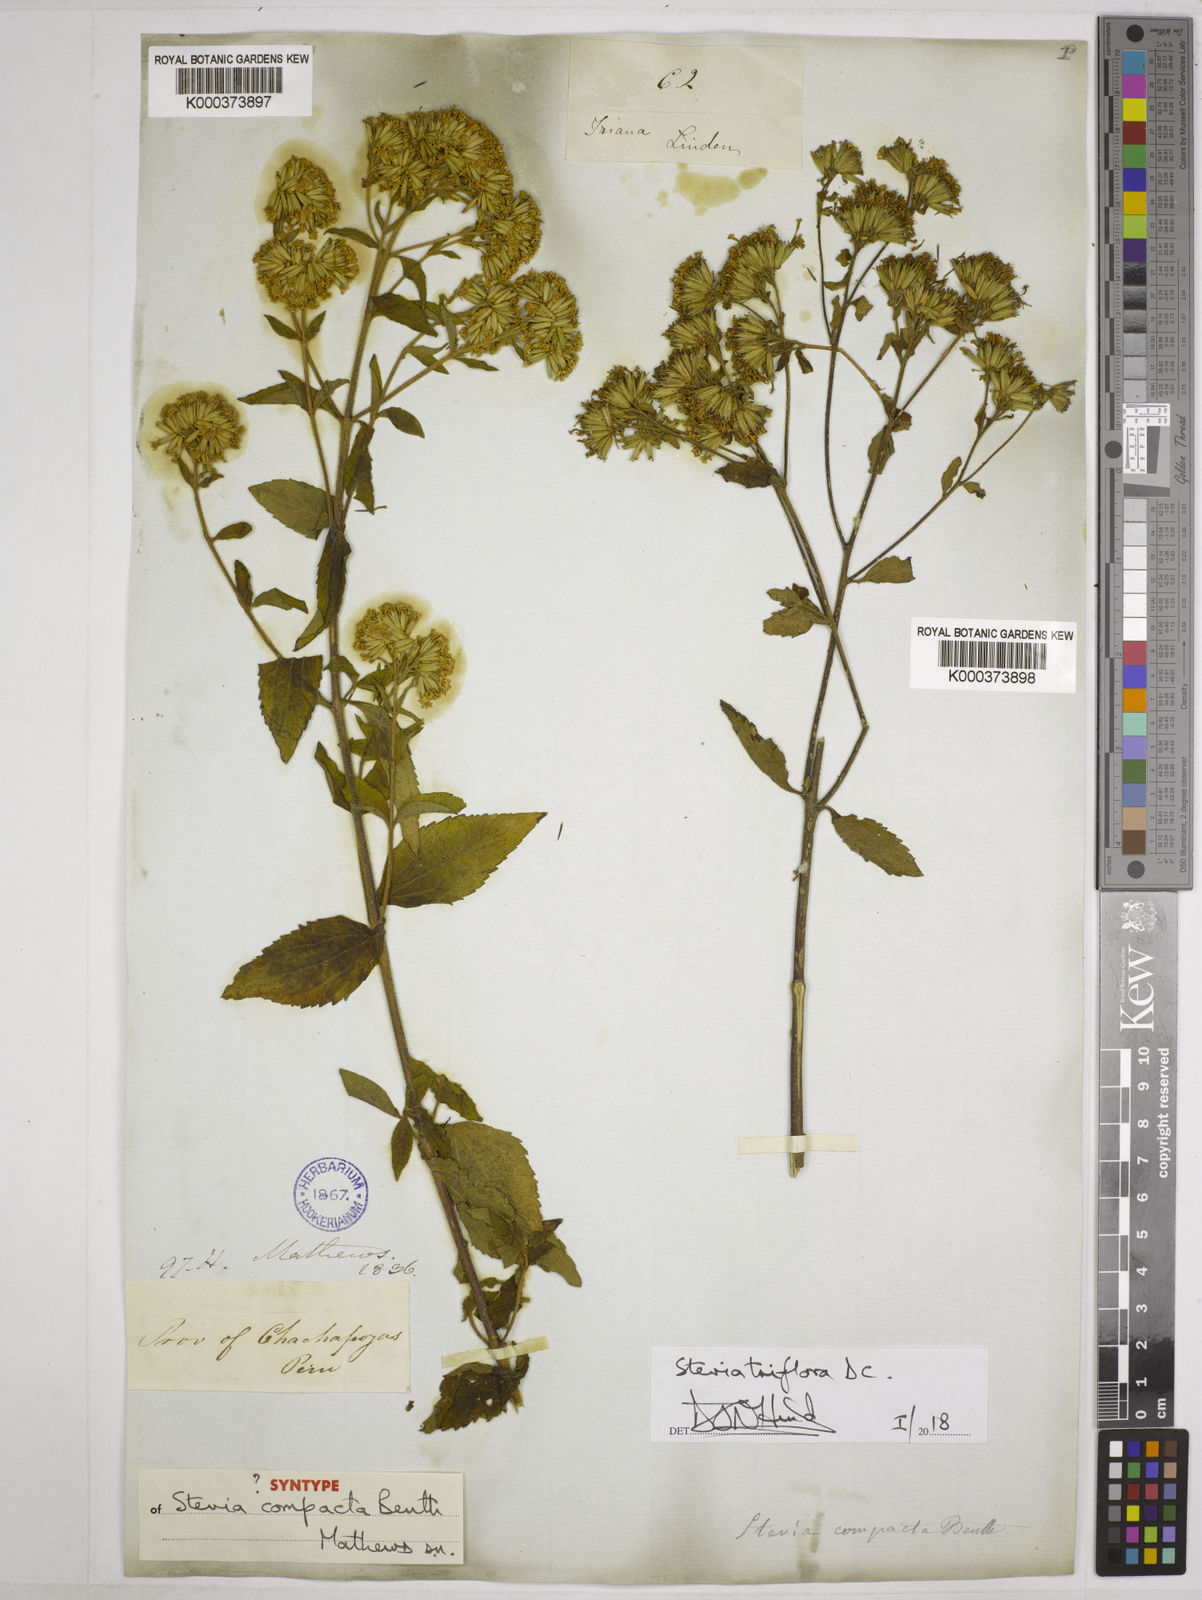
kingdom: Plantae
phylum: Tracheophyta
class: Magnoliopsida
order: Asterales
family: Asteraceae
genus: Stevia
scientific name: Stevia triflora
